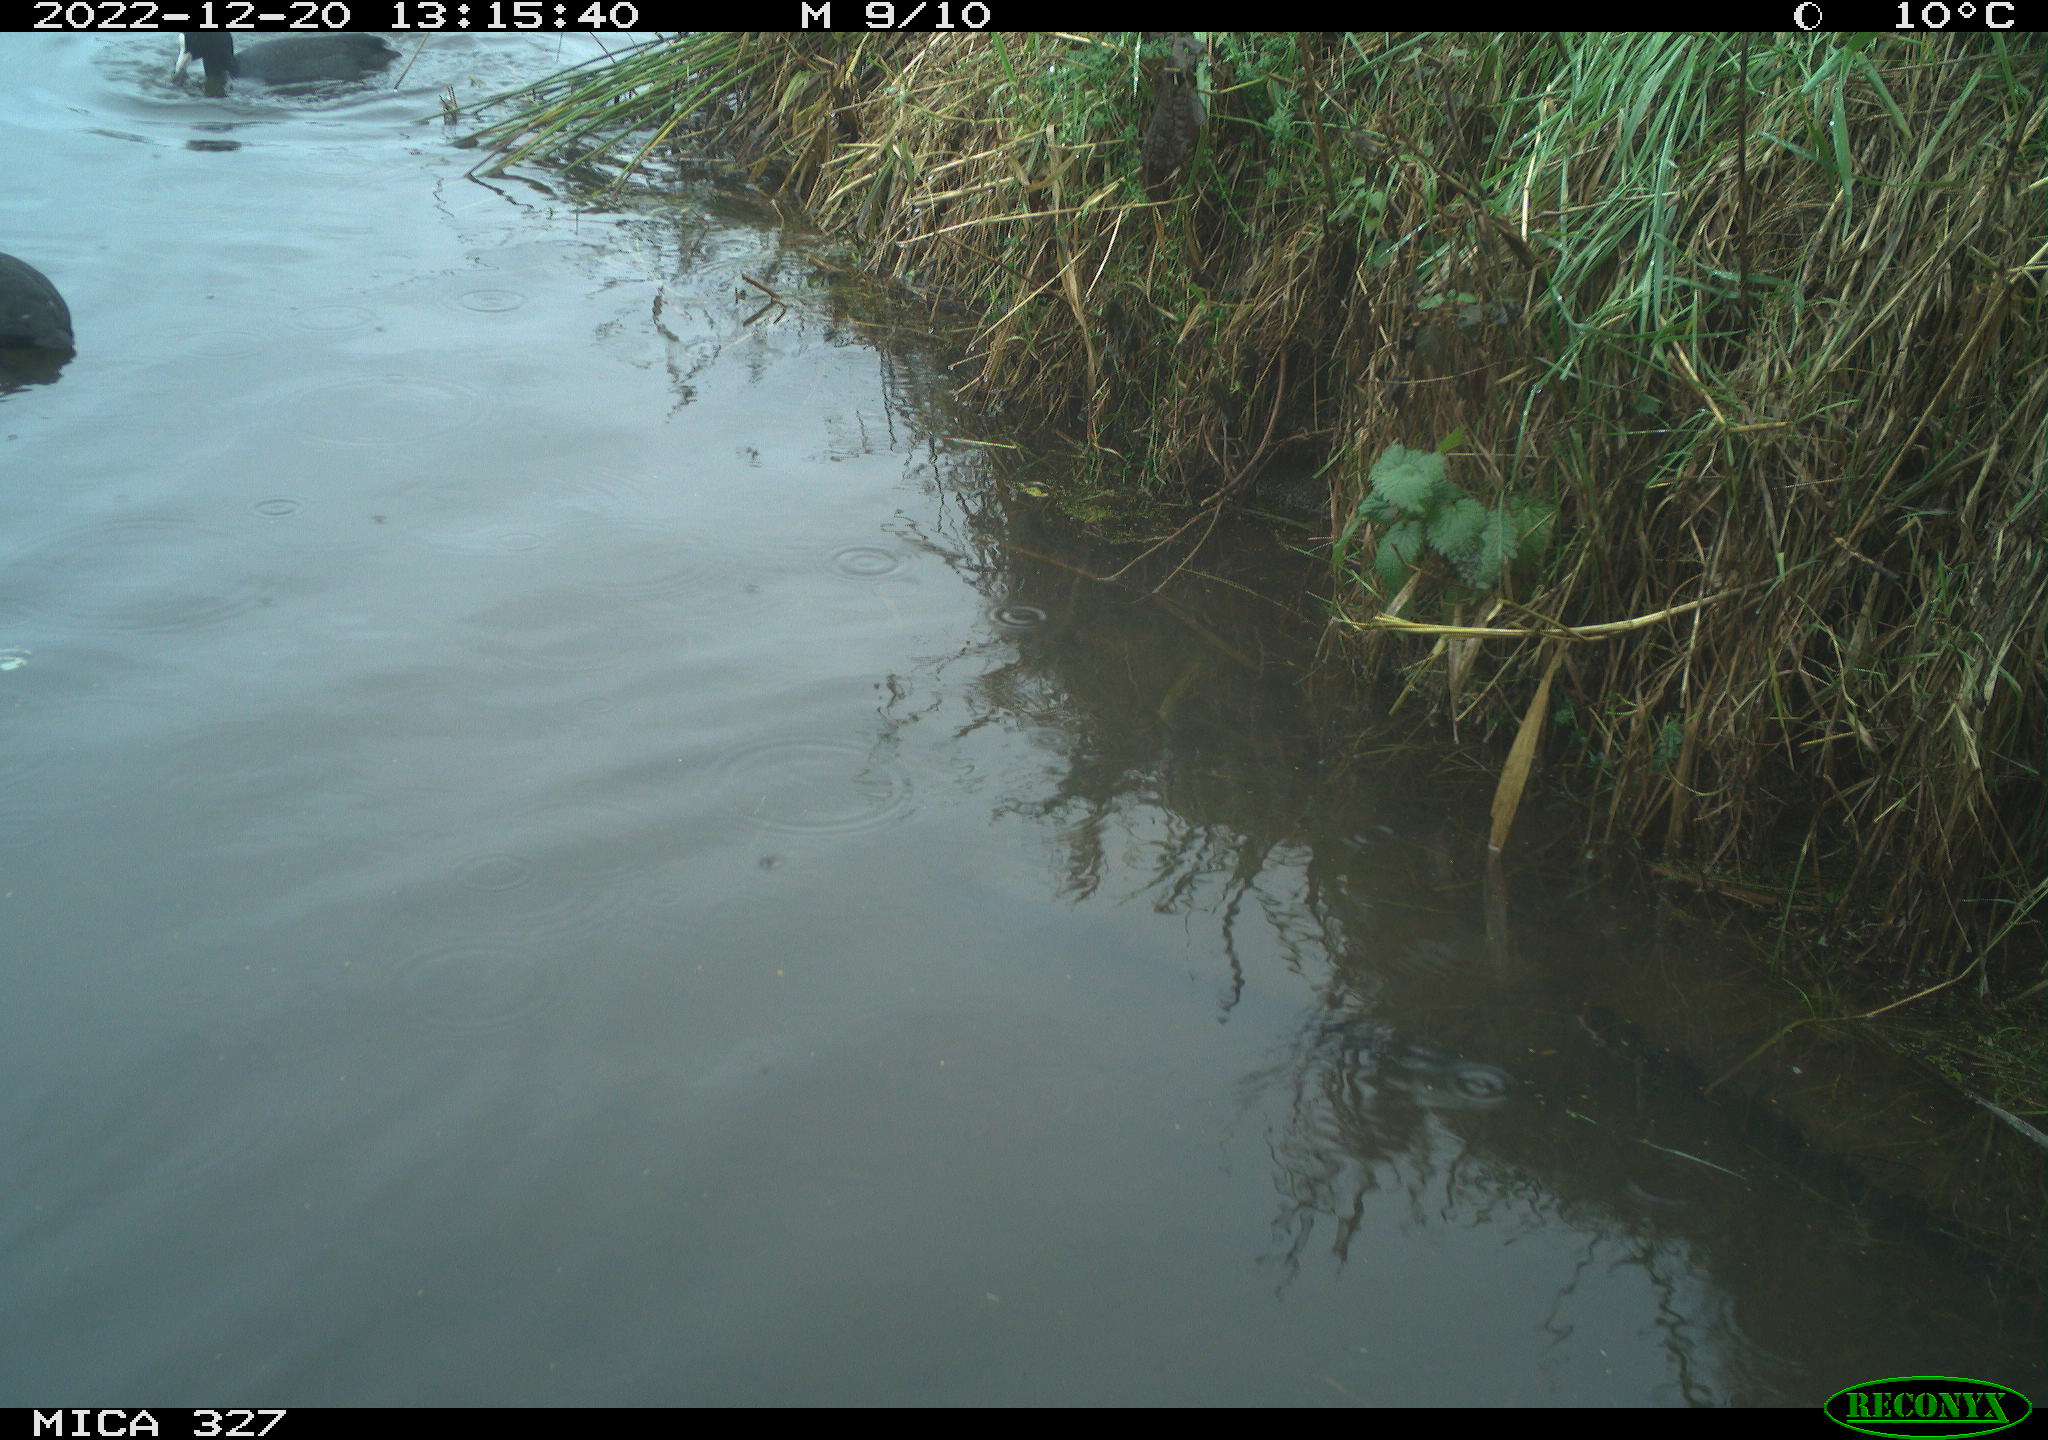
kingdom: Animalia
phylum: Chordata
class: Aves
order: Anseriformes
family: Anatidae
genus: Anas
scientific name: Anas
